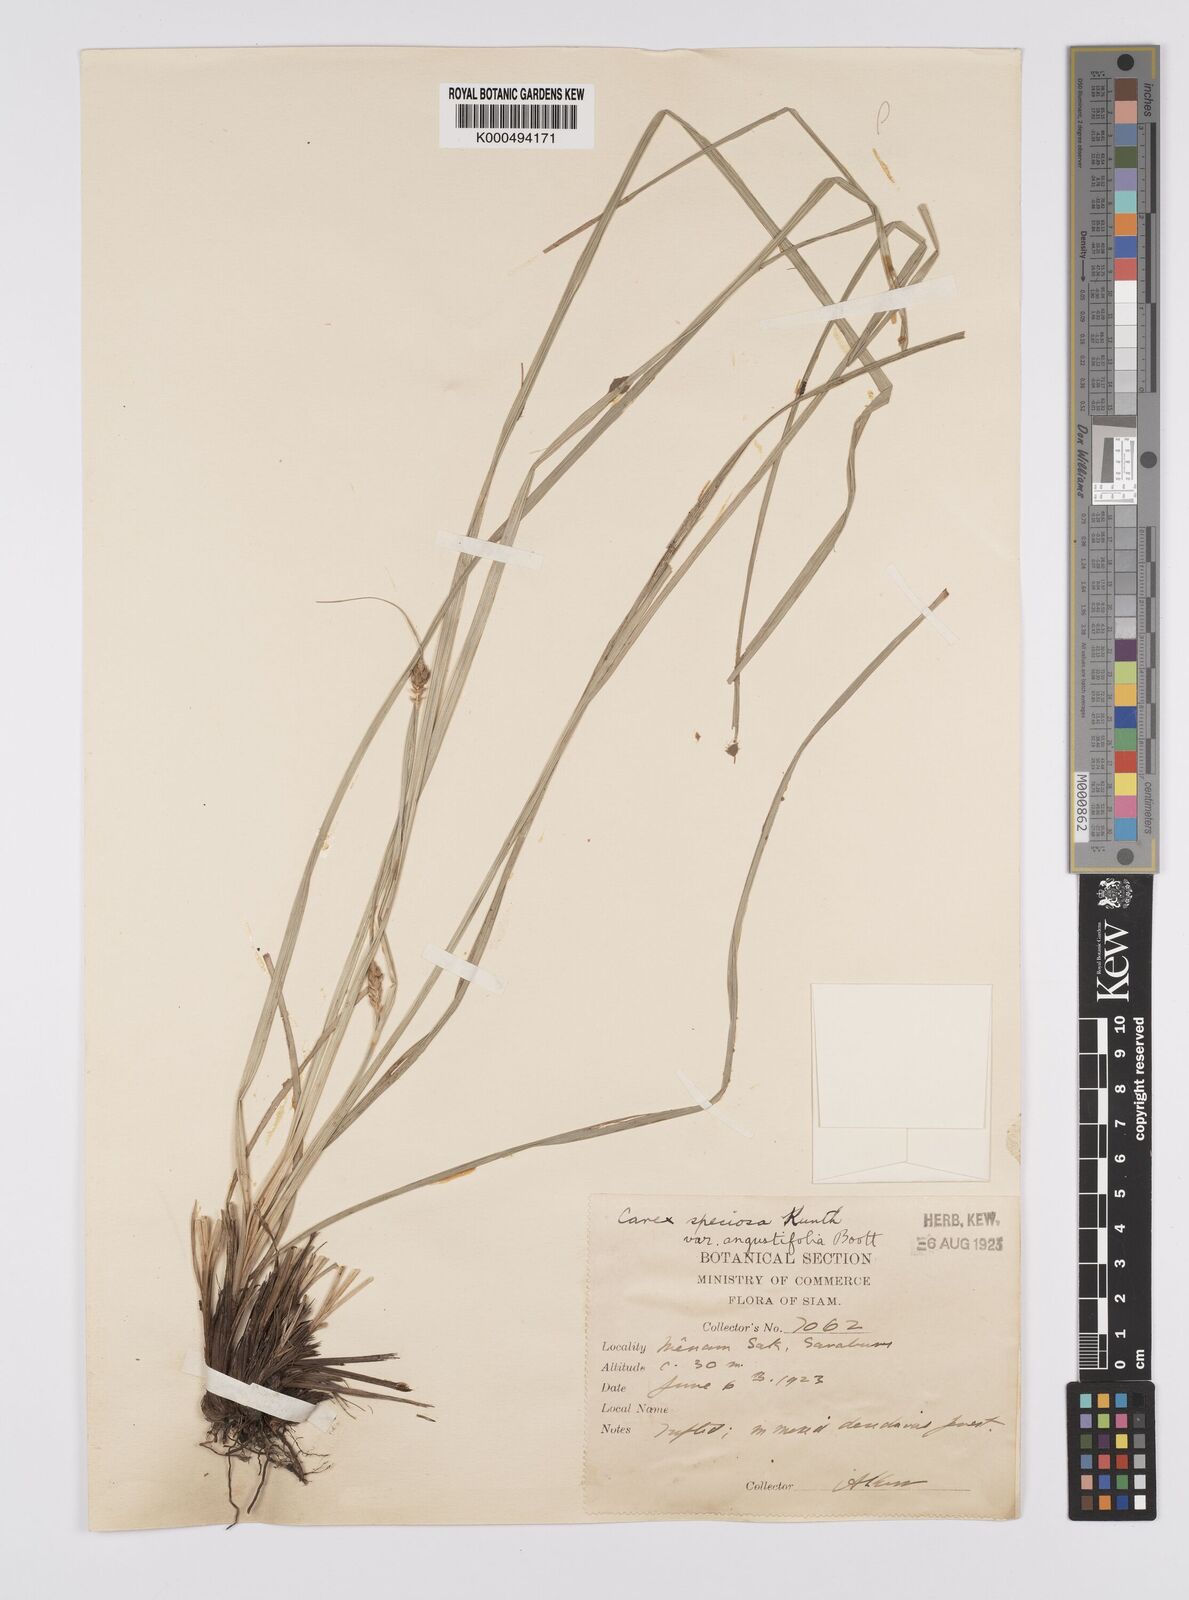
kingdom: Plantae
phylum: Tracheophyta
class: Liliopsida
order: Poales
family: Cyperaceae
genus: Carex
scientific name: Carex speciosa
